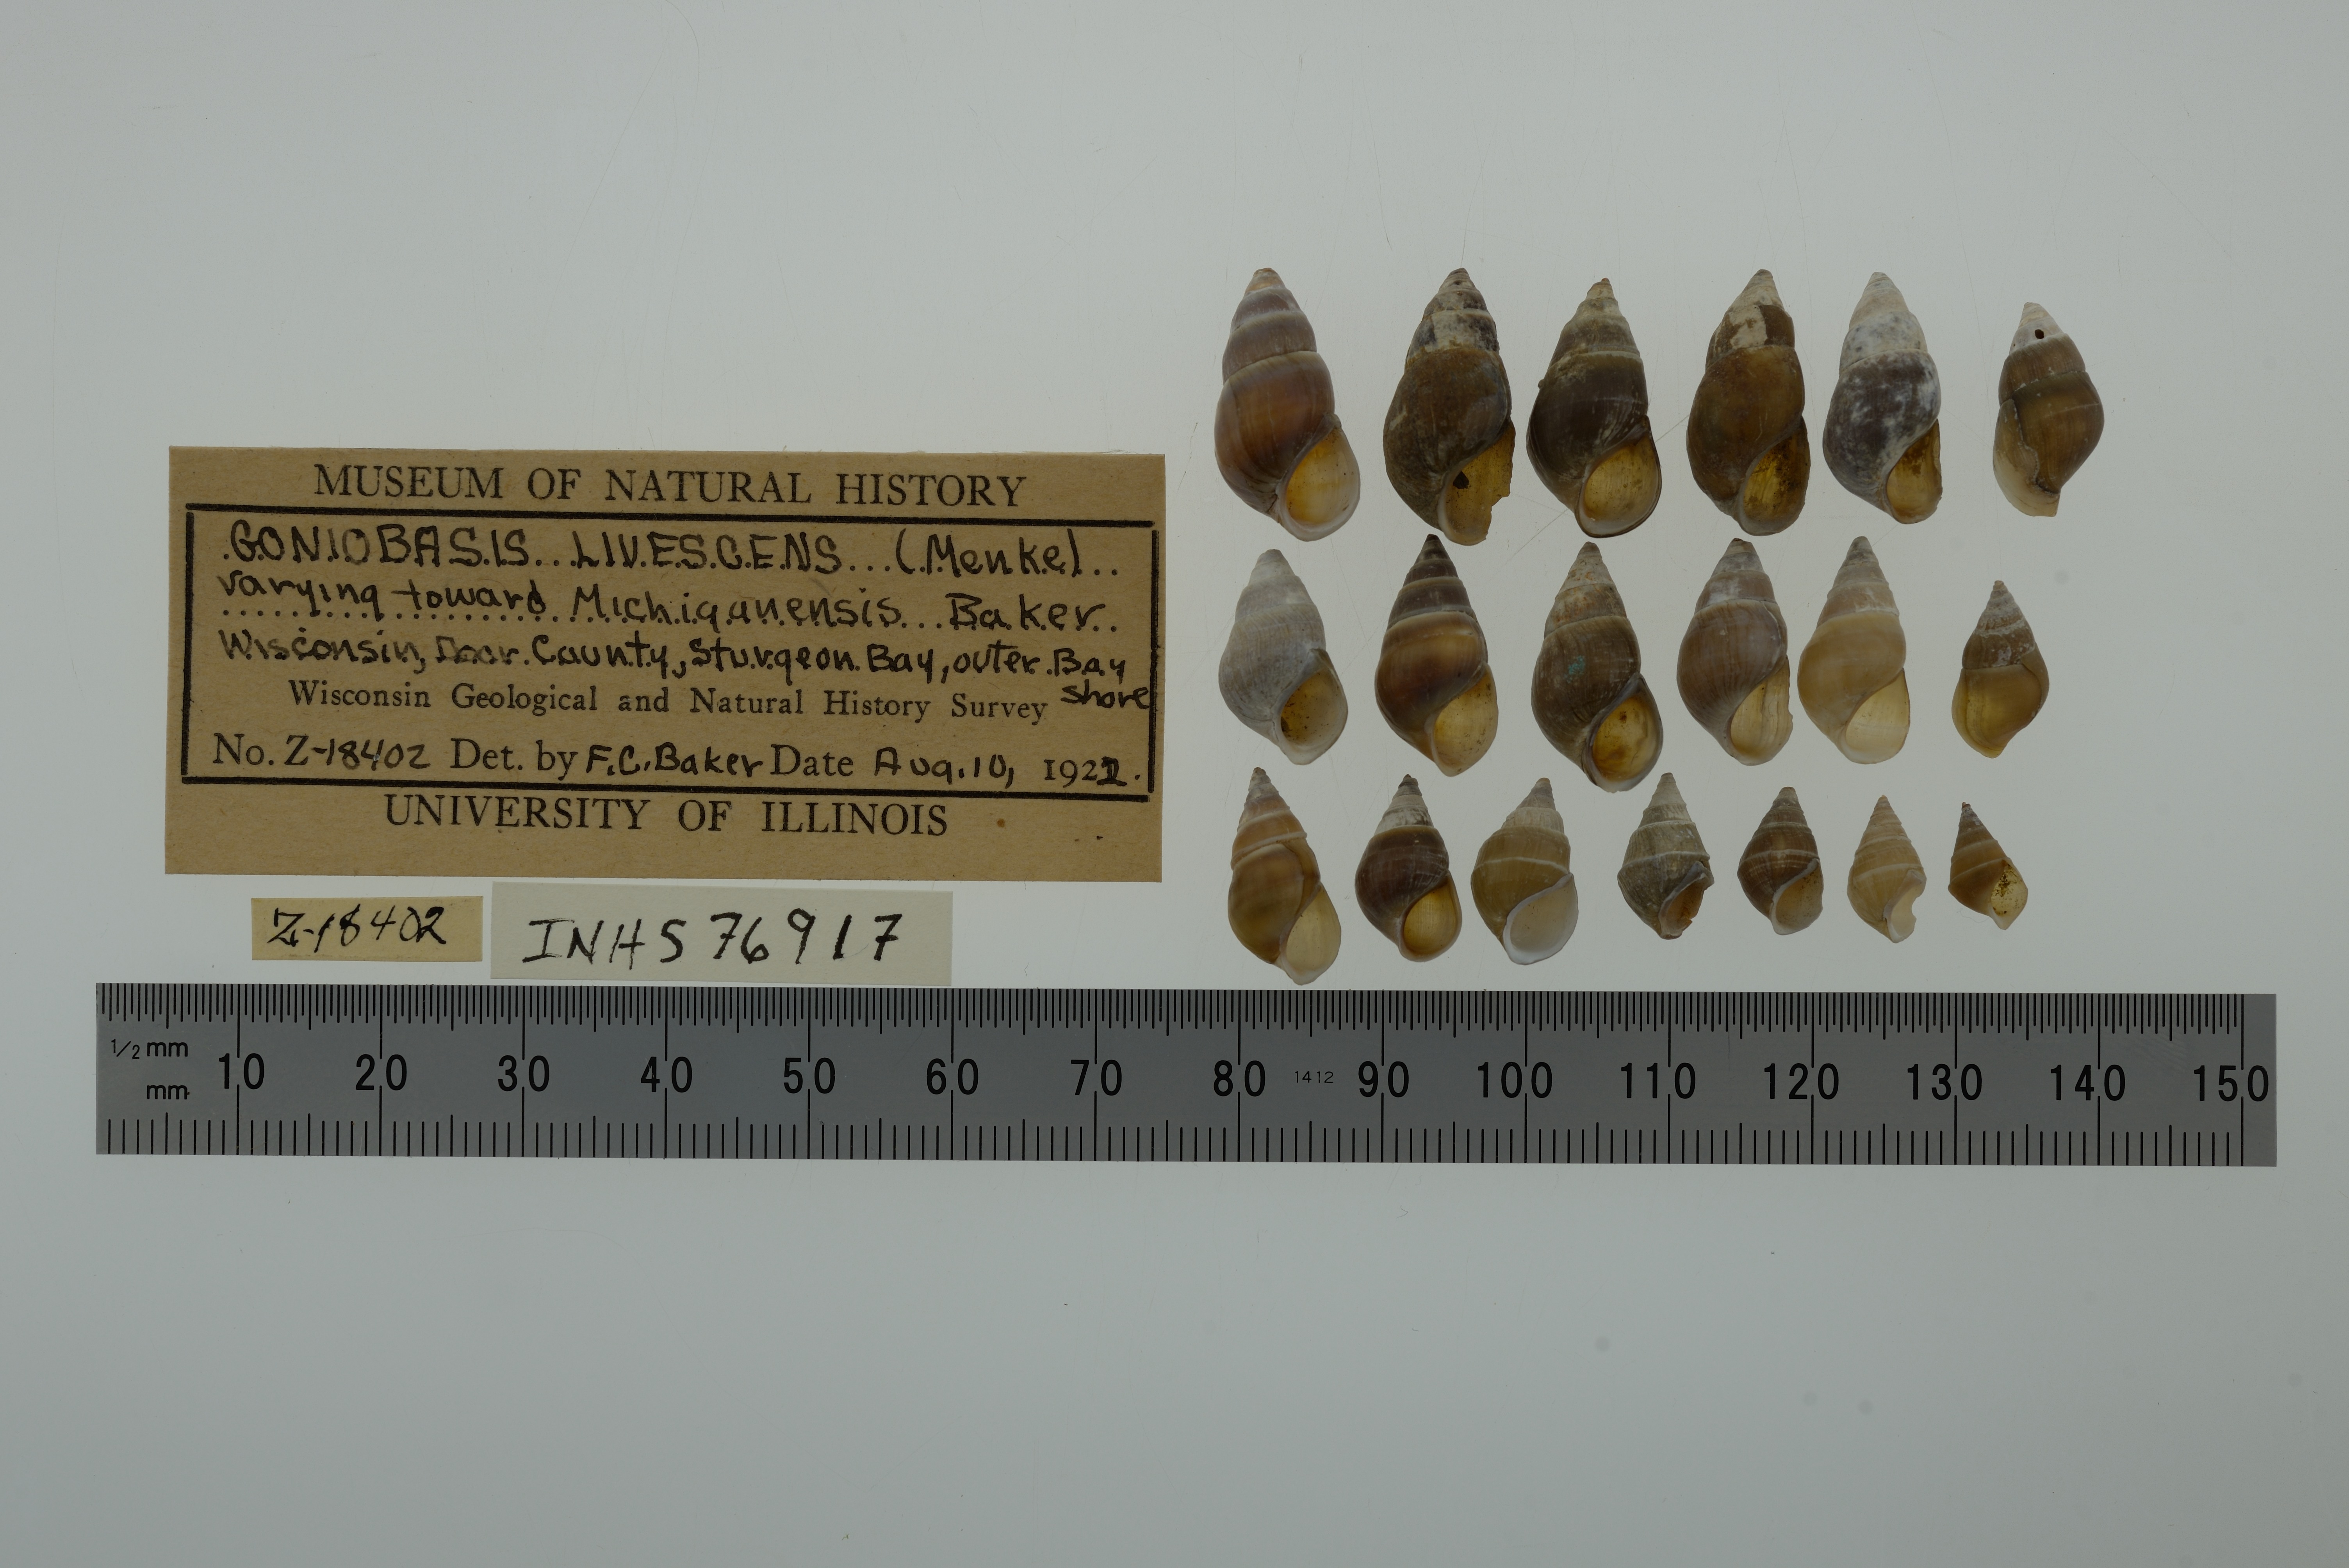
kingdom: Animalia
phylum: Mollusca
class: Gastropoda
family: Pleuroceridae
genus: Elimia
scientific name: Elimia livescens
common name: Liver elimia
